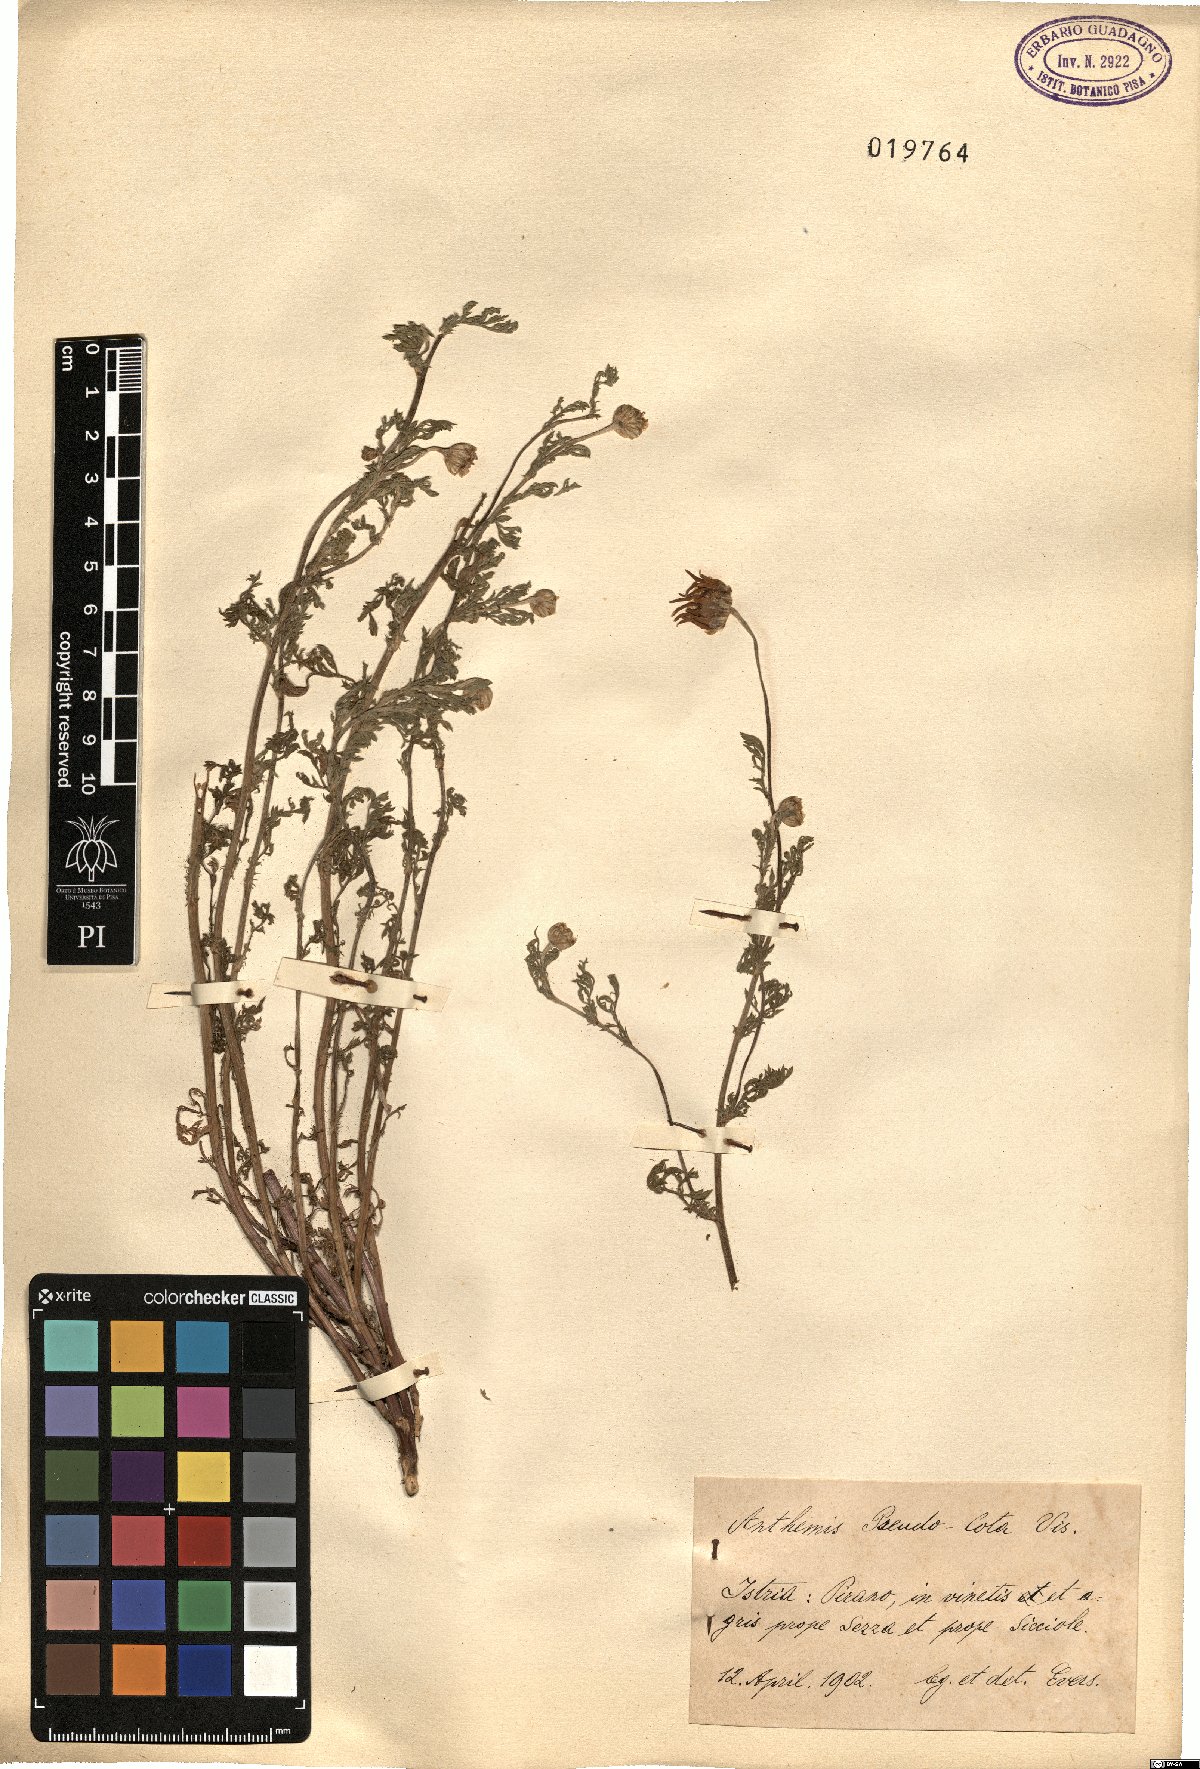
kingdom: Plantae
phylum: Tracheophyta
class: Magnoliopsida
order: Asterales
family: Asteraceae
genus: Cota
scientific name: Cota segetalis
